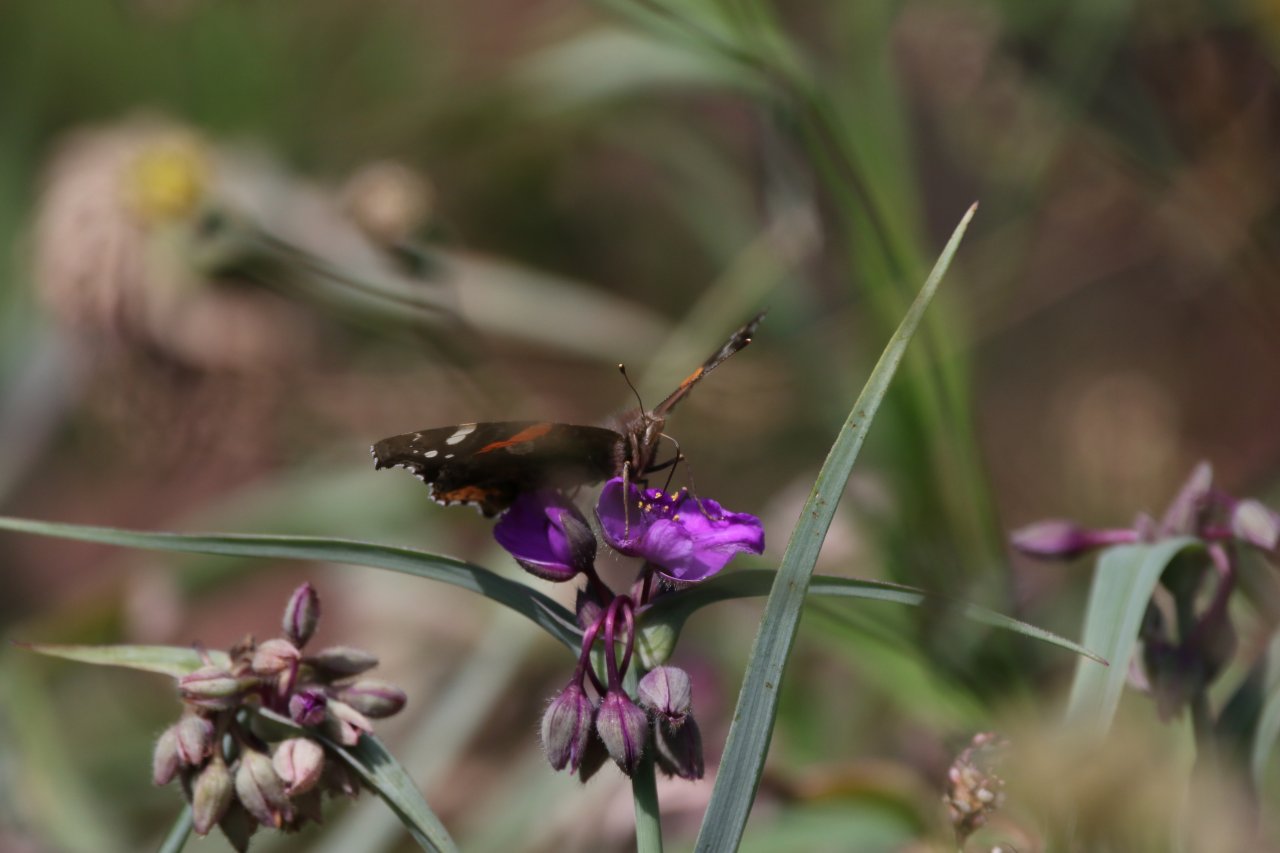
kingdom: Animalia
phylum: Arthropoda
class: Insecta
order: Lepidoptera
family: Nymphalidae
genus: Vanessa
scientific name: Vanessa atalanta
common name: Red Admiral
